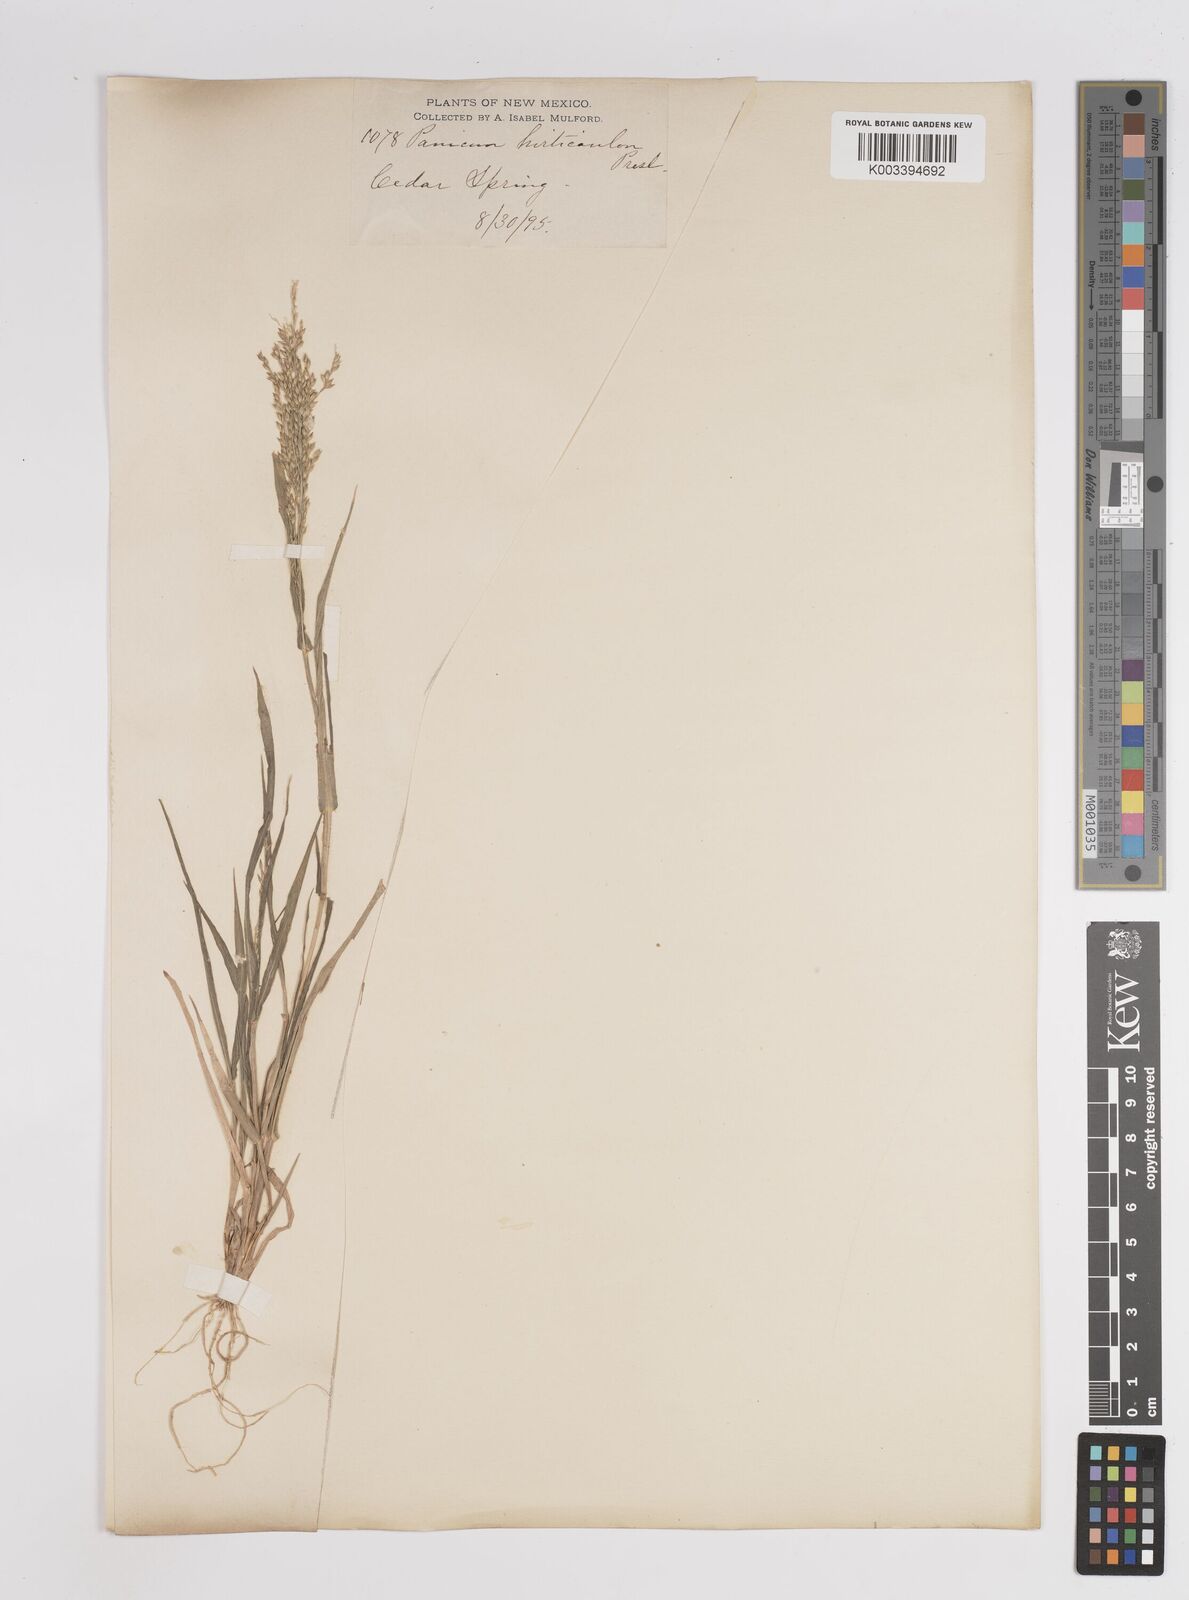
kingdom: Plantae
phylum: Tracheophyta
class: Liliopsida
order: Poales
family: Poaceae
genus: Panicum
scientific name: Panicum
